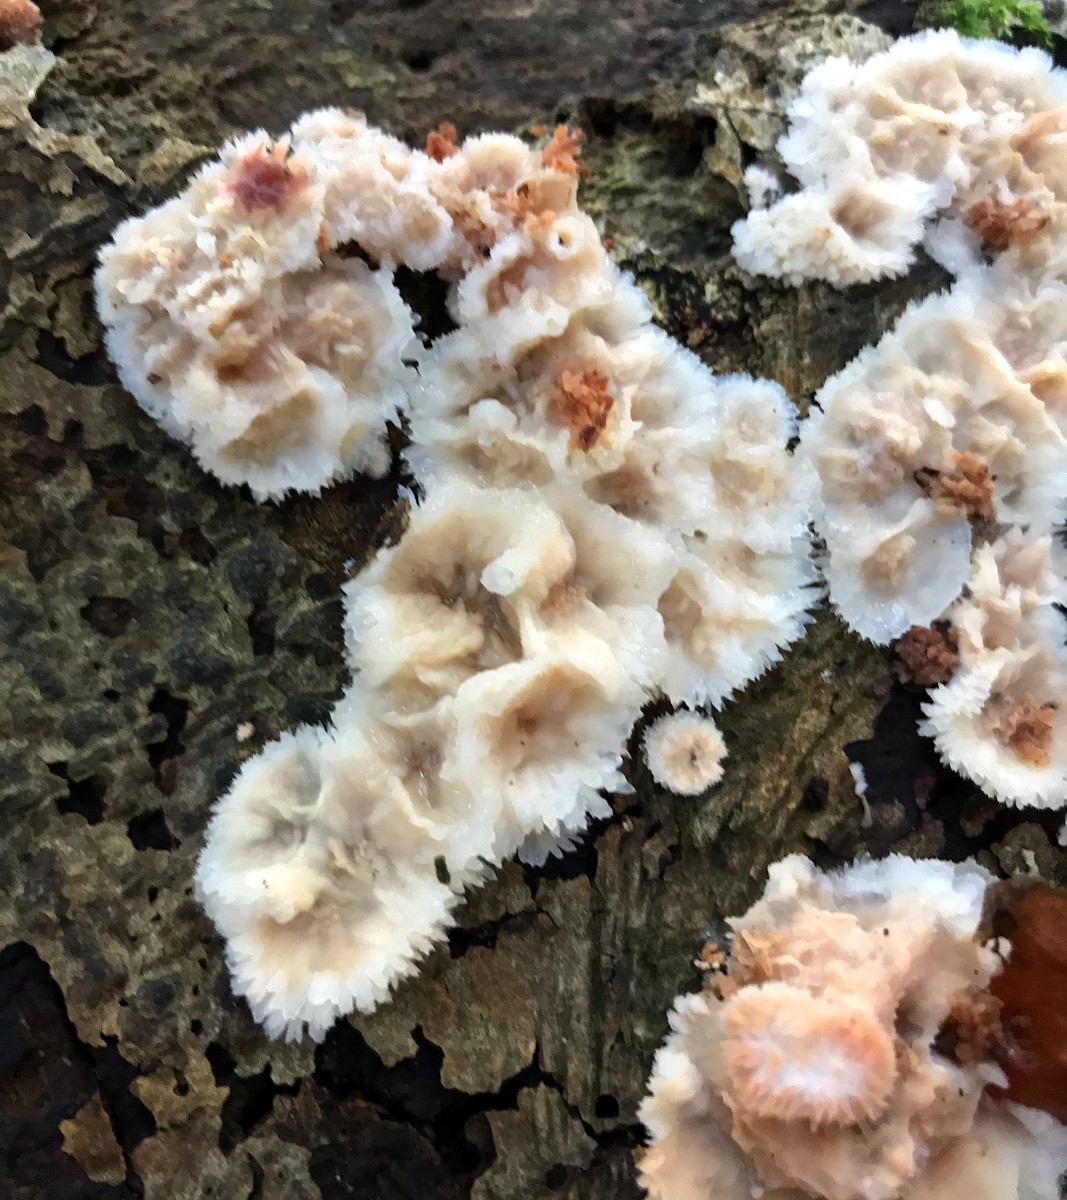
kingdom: Fungi
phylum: Basidiomycota
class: Agaricomycetes
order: Polyporales
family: Meruliaceae
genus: Phlebia
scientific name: Phlebia tremellosa
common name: bævrende åresvamp
